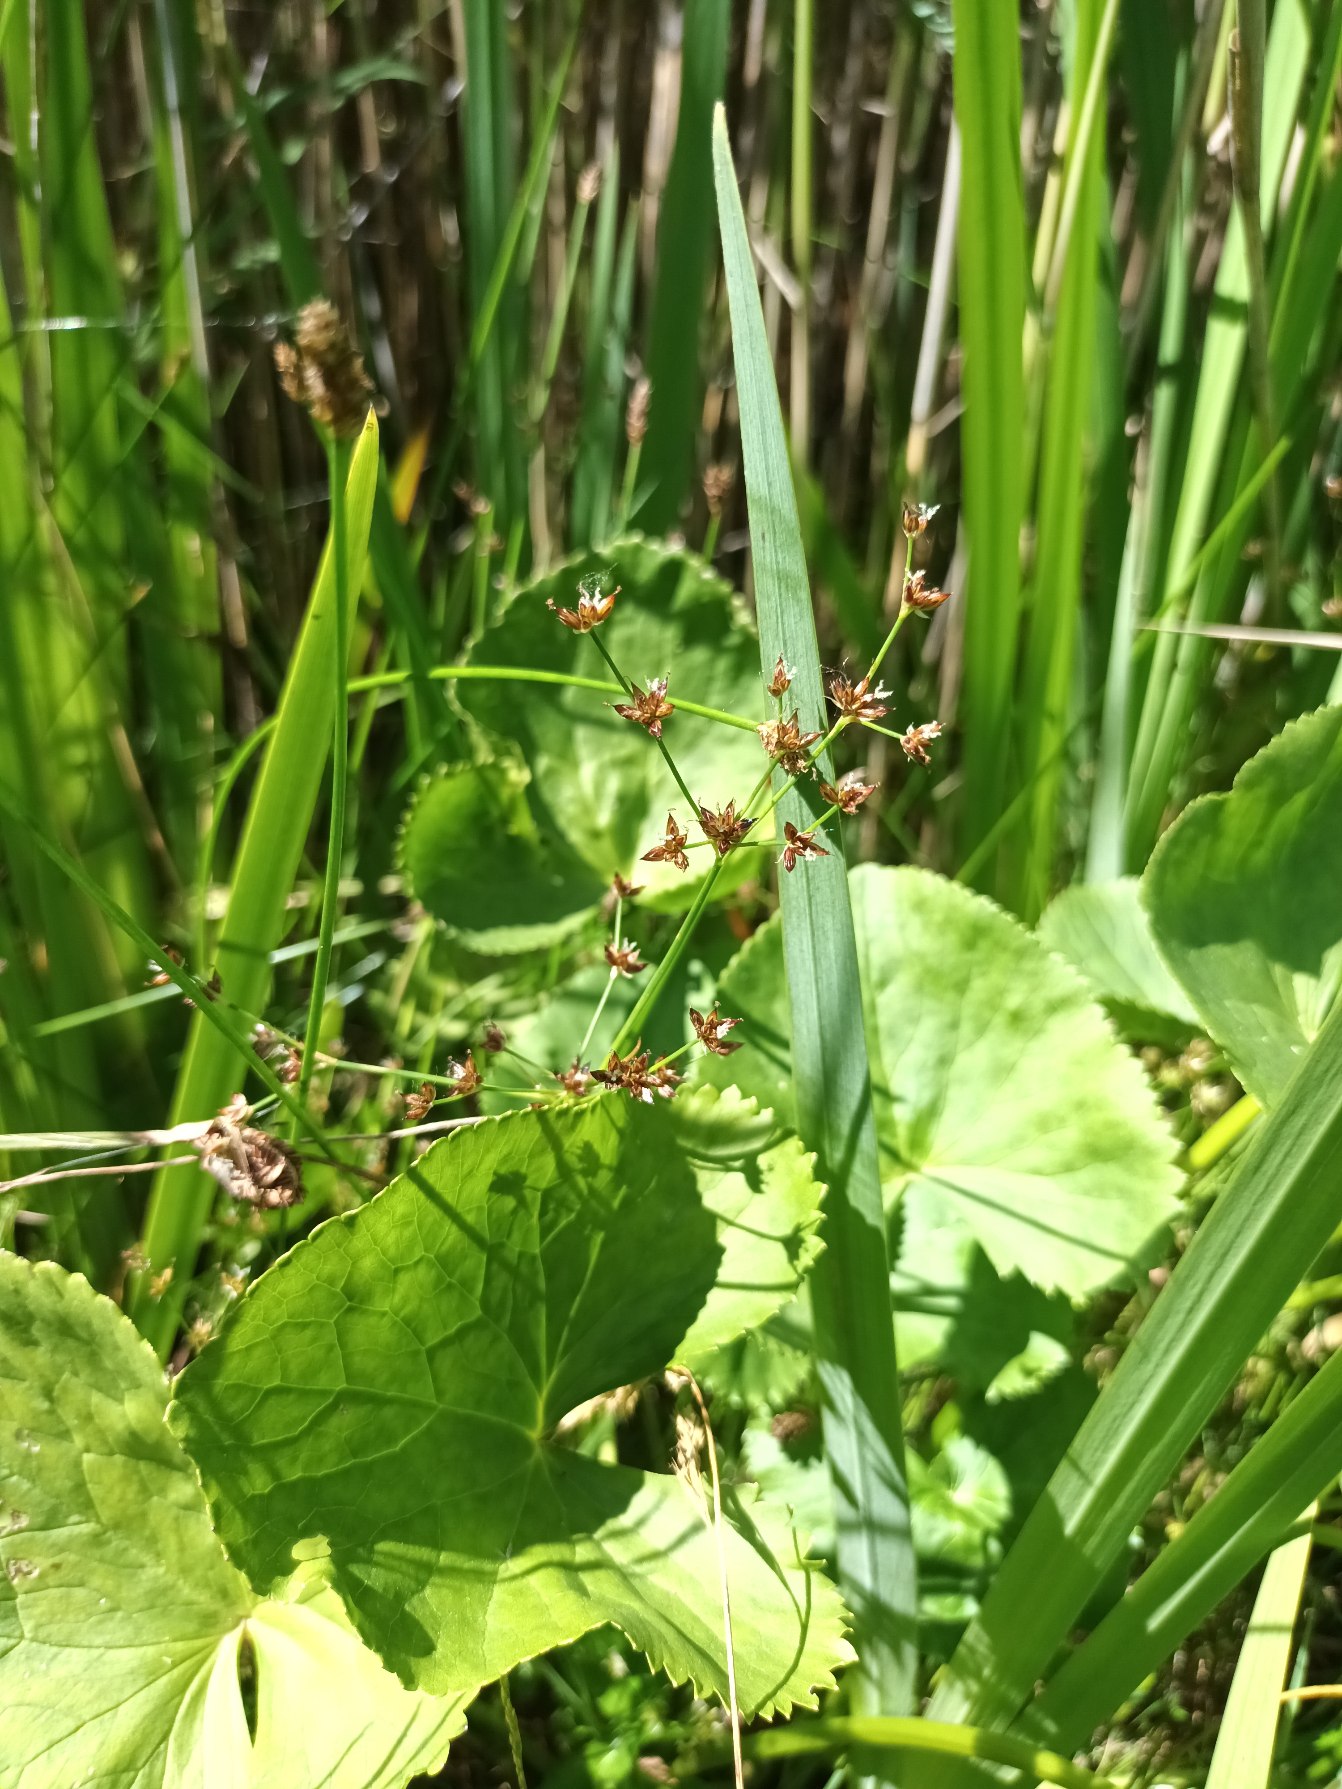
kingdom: Plantae
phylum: Tracheophyta
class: Liliopsida
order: Poales
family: Juncaceae
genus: Juncus
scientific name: Juncus articulatus
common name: Glanskapslet siv
